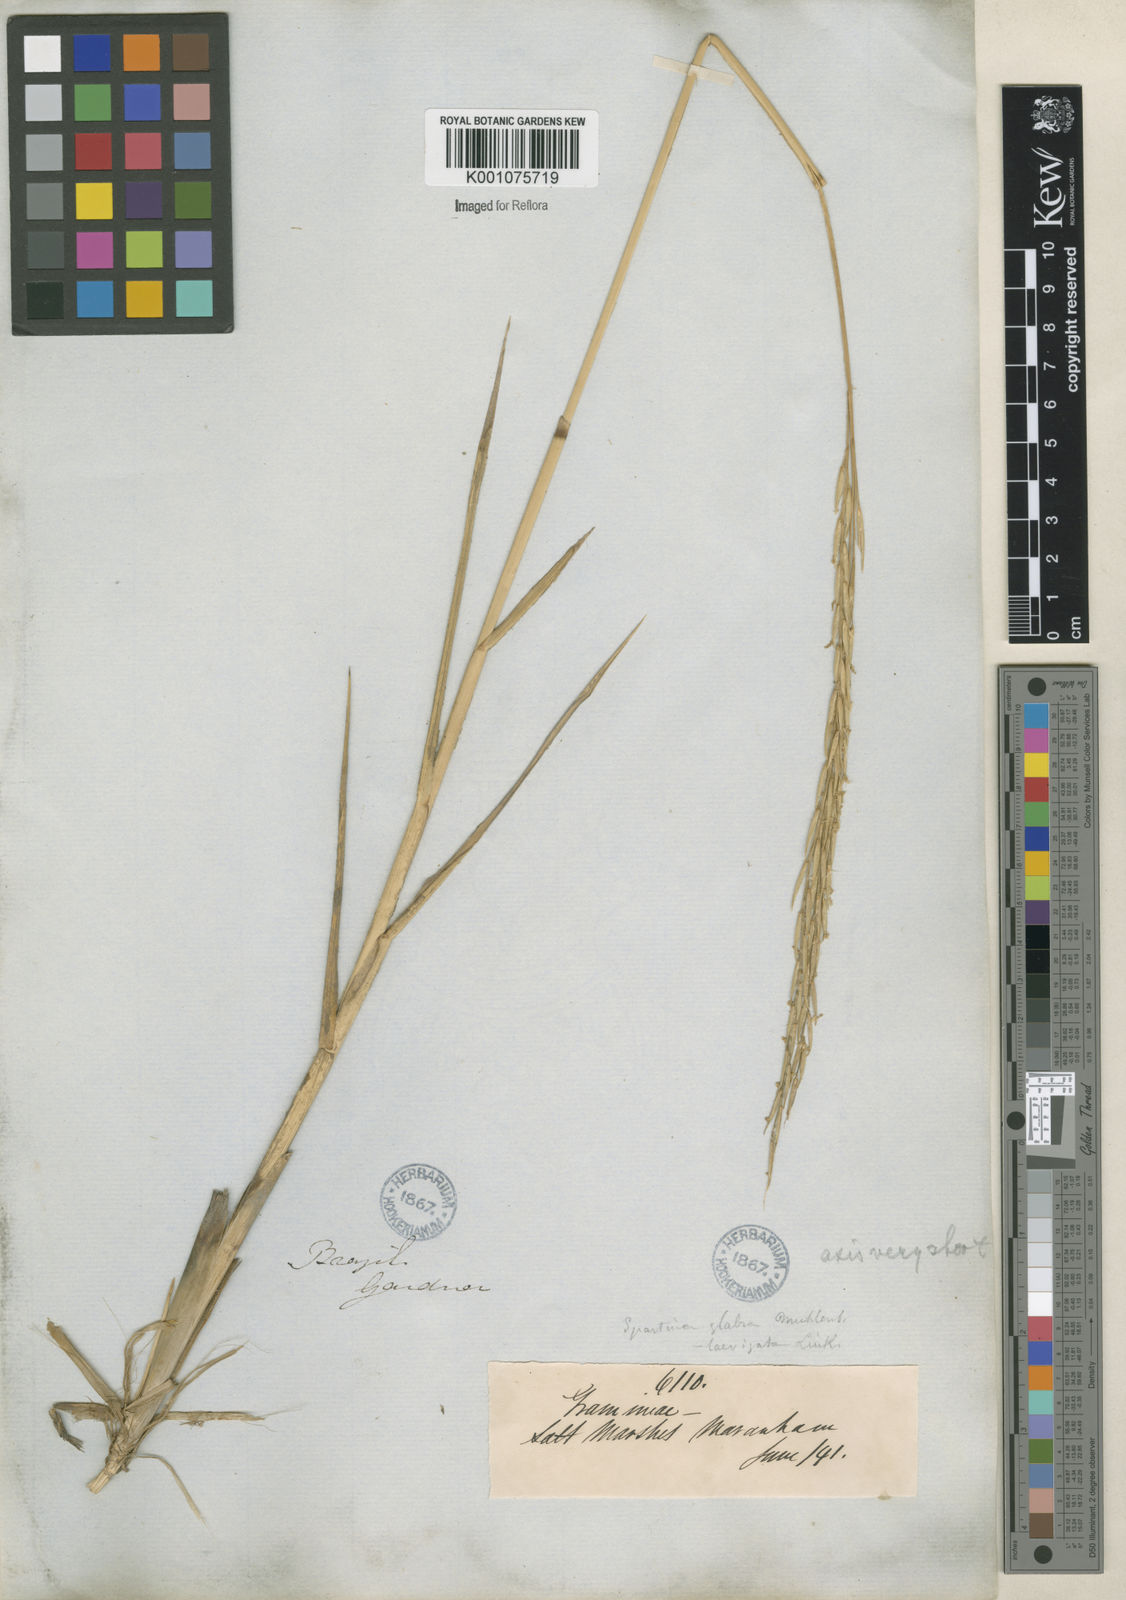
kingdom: Animalia
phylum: Mollusca
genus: Spartina
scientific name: Spartina
